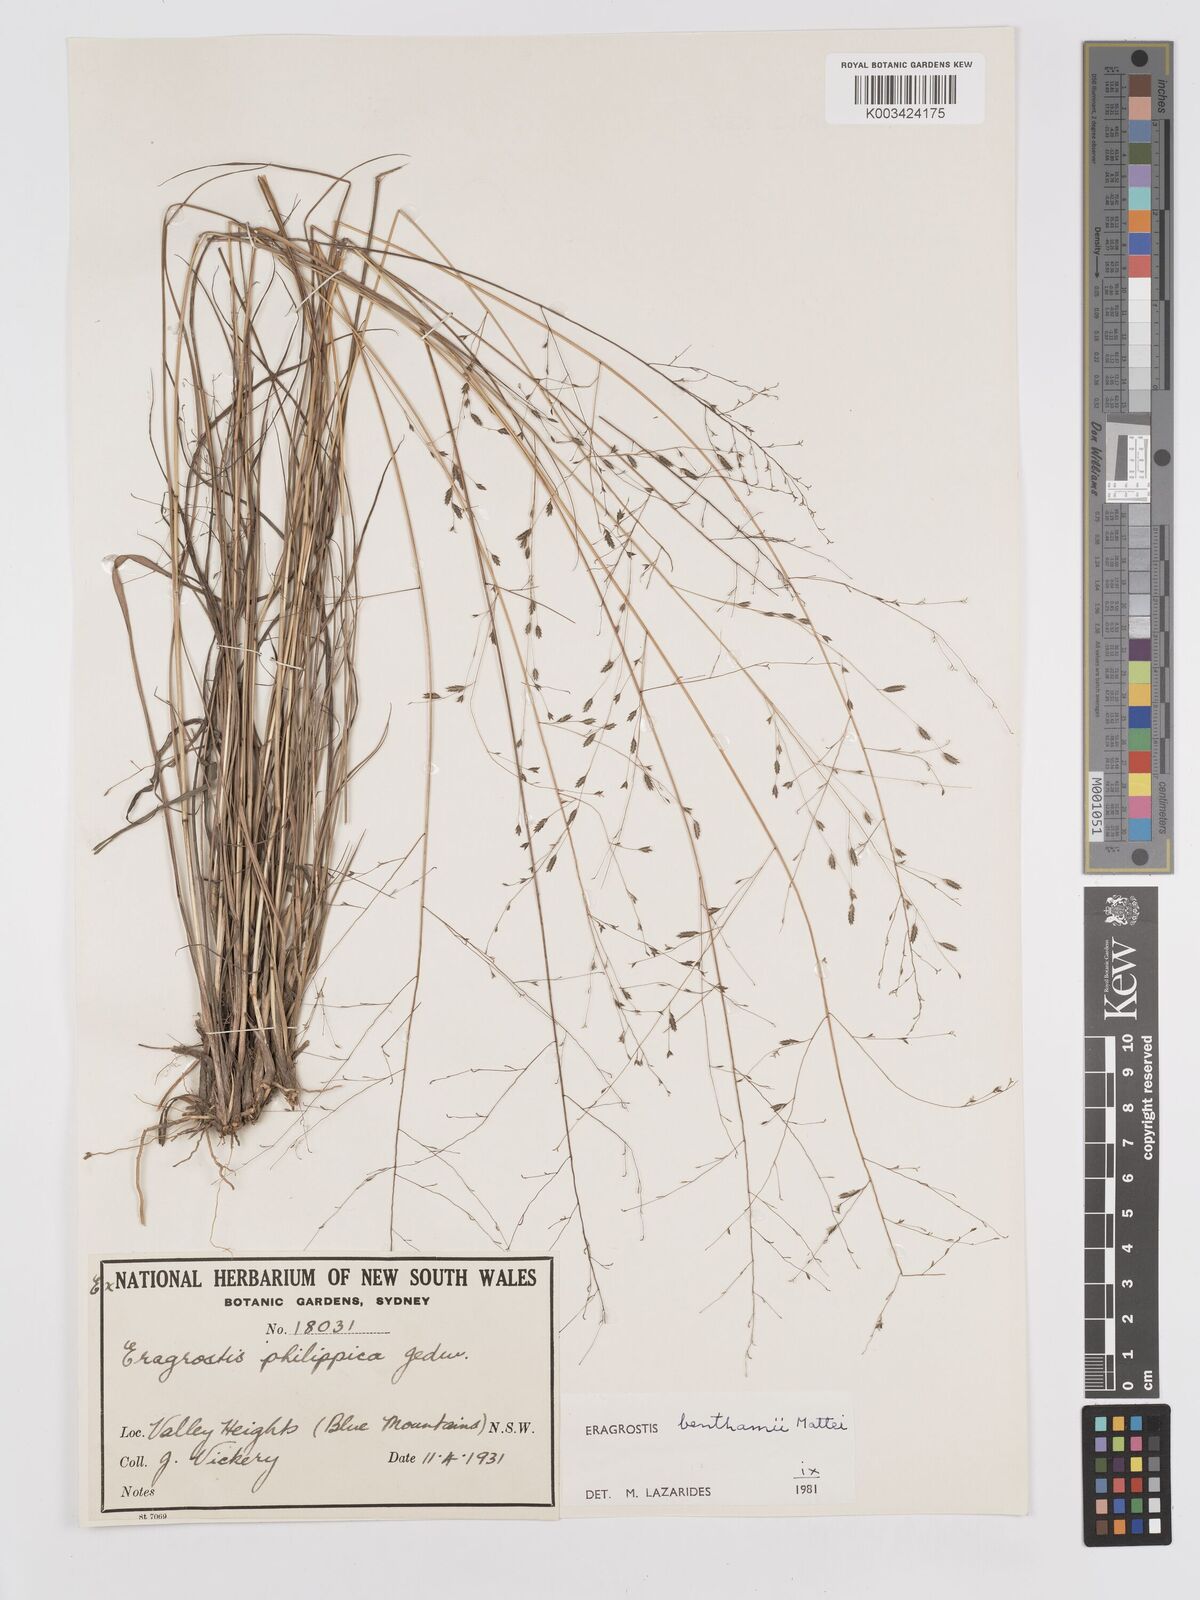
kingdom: Plantae
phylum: Tracheophyta
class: Liliopsida
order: Poales
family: Poaceae
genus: Eragrostis
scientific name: Eragrostis brownii
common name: Lovegrass
